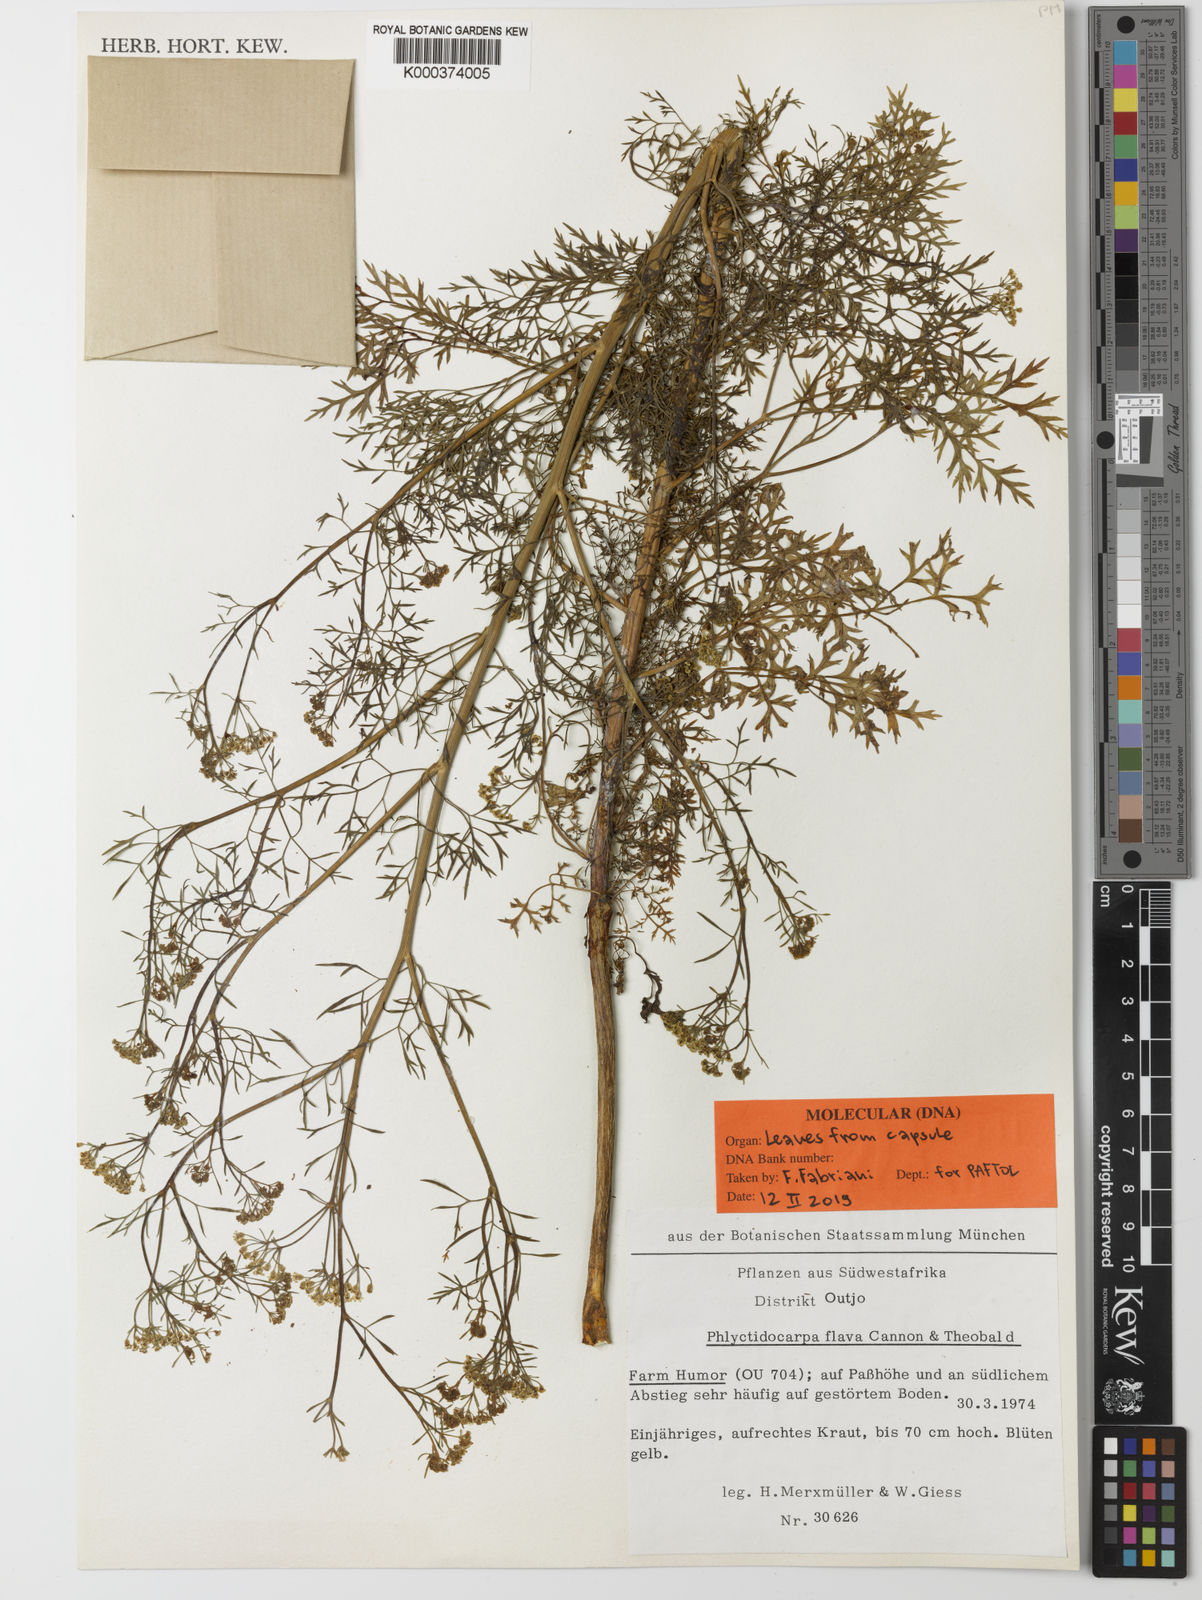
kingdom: Plantae
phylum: Tracheophyta
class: Magnoliopsida
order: Apiales
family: Apiaceae
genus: Phlyctidocarpa
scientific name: Phlyctidocarpa flava
